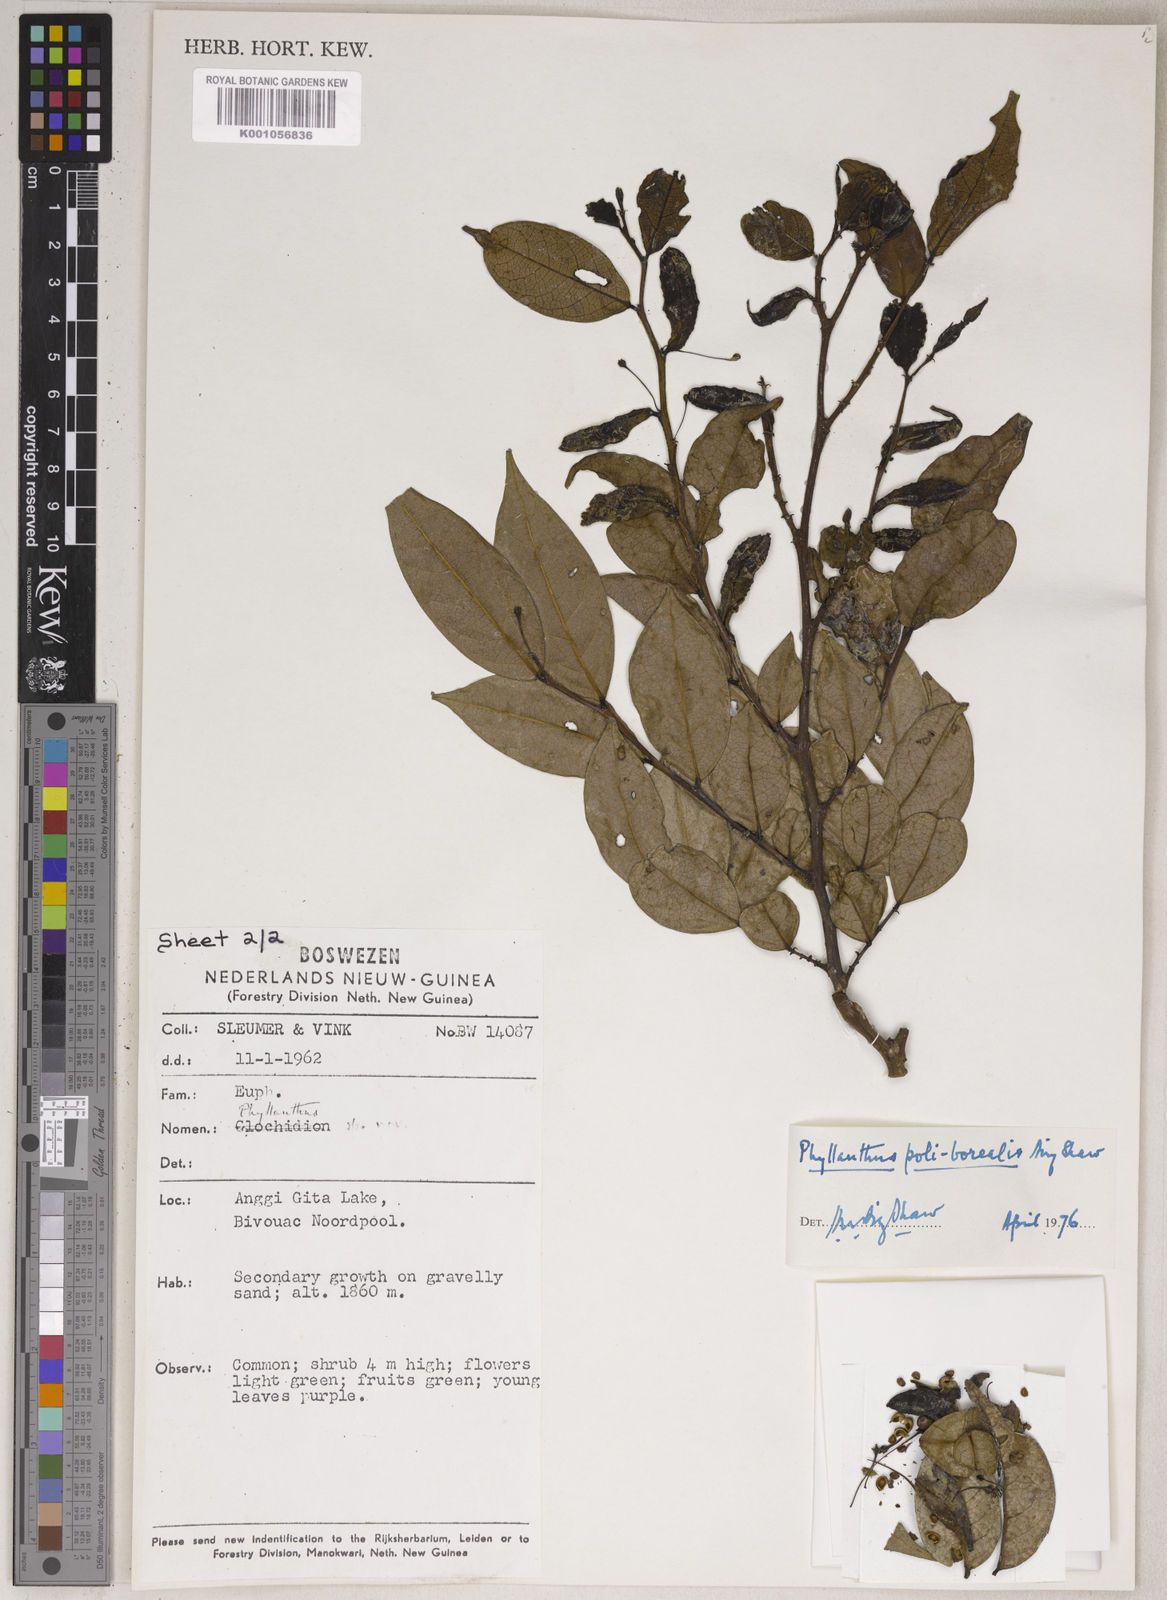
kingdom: Plantae
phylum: Tracheophyta
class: Magnoliopsida
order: Malpighiales
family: Phyllanthaceae
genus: Phyllanthus
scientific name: Phyllanthus poliborealis
